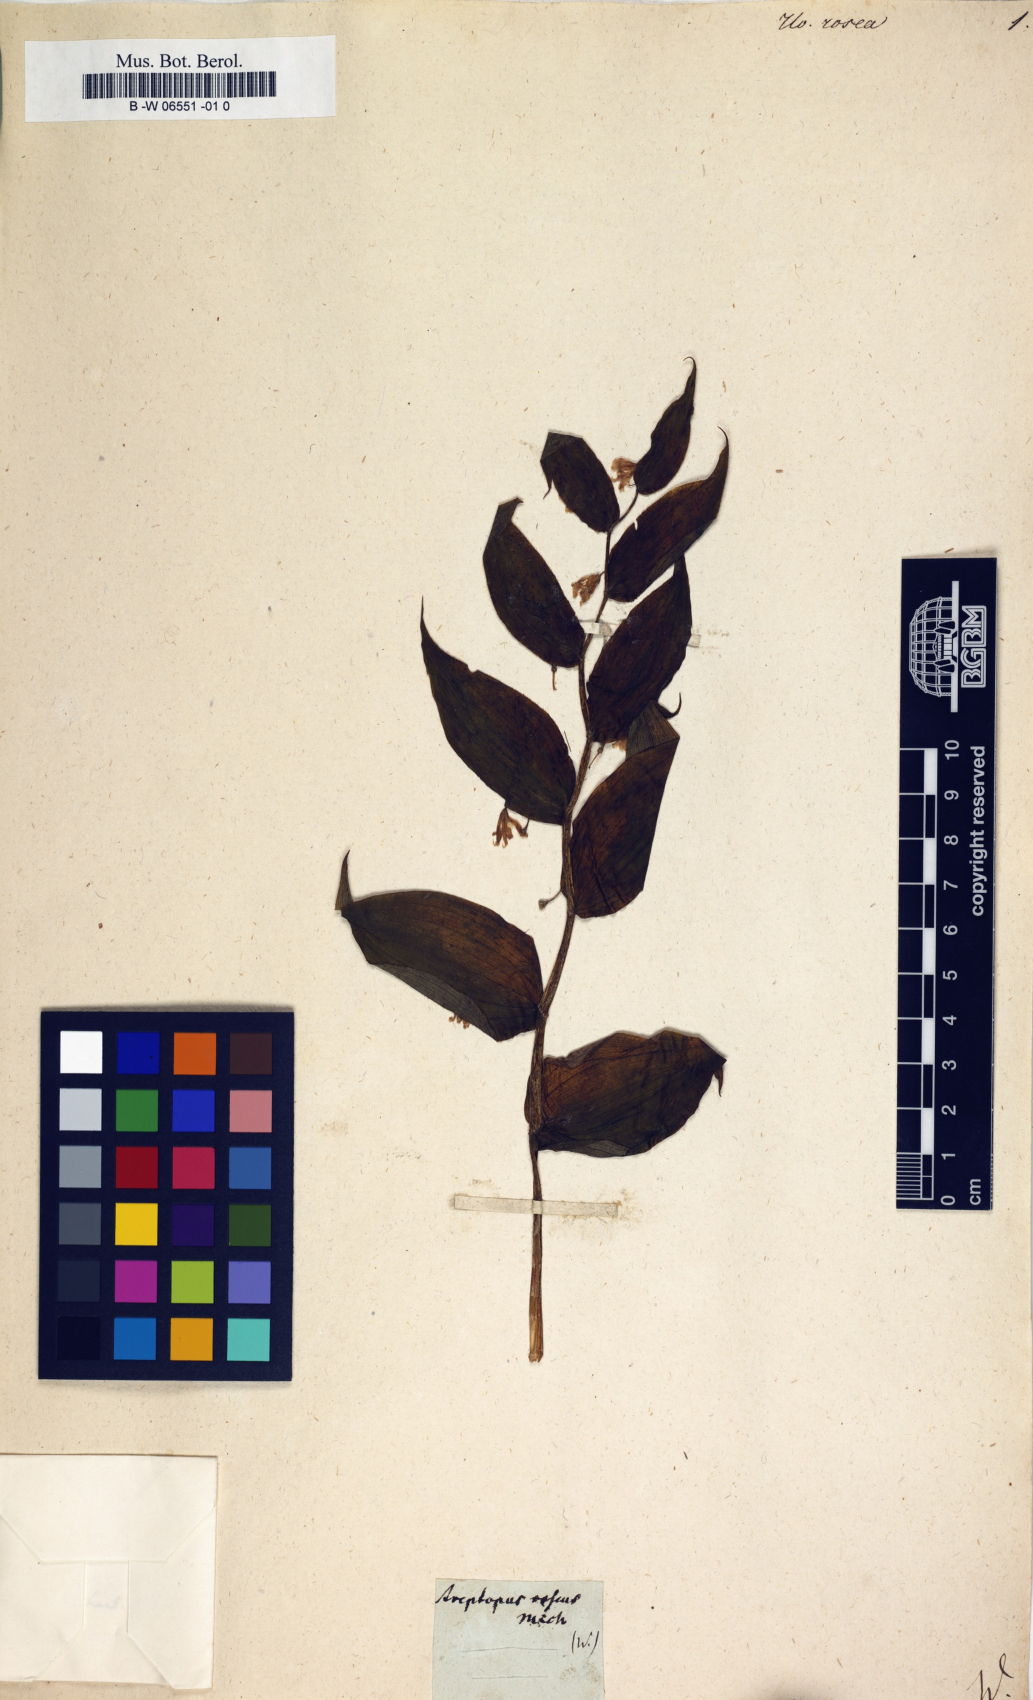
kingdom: Plantae
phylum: Tracheophyta
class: Liliopsida
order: Liliales
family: Liliaceae
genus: Streptopus
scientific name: Streptopus lanceolatus
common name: Rose mandarin
